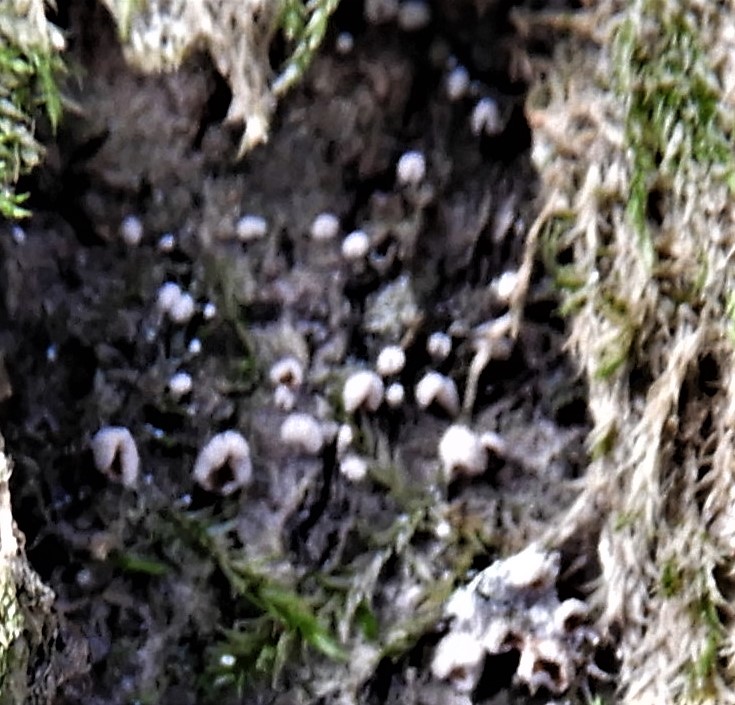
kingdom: Fungi
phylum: Basidiomycota
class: Agaricomycetes
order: Agaricales
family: Chromocyphellaceae
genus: Chromocyphella
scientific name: Chromocyphella muscicola
